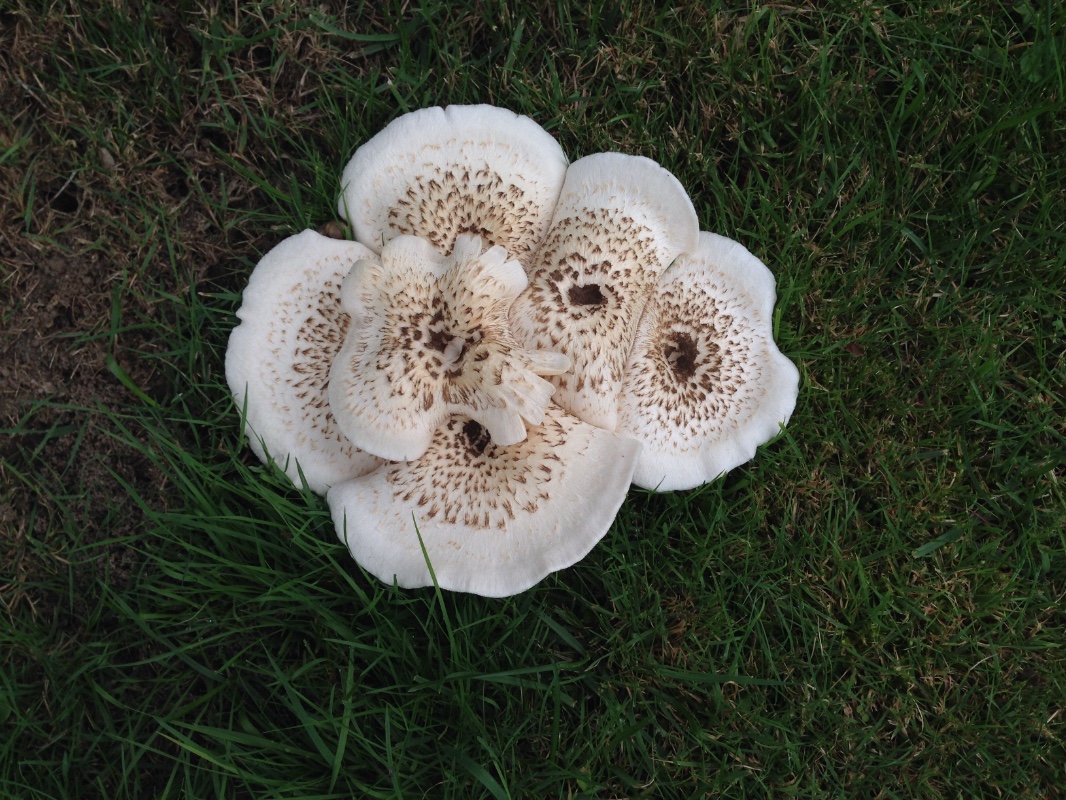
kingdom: Fungi
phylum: Basidiomycota
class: Agaricomycetes
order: Polyporales
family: Polyporaceae
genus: Lentinus
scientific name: Lentinus tigrinus
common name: tigerhat
